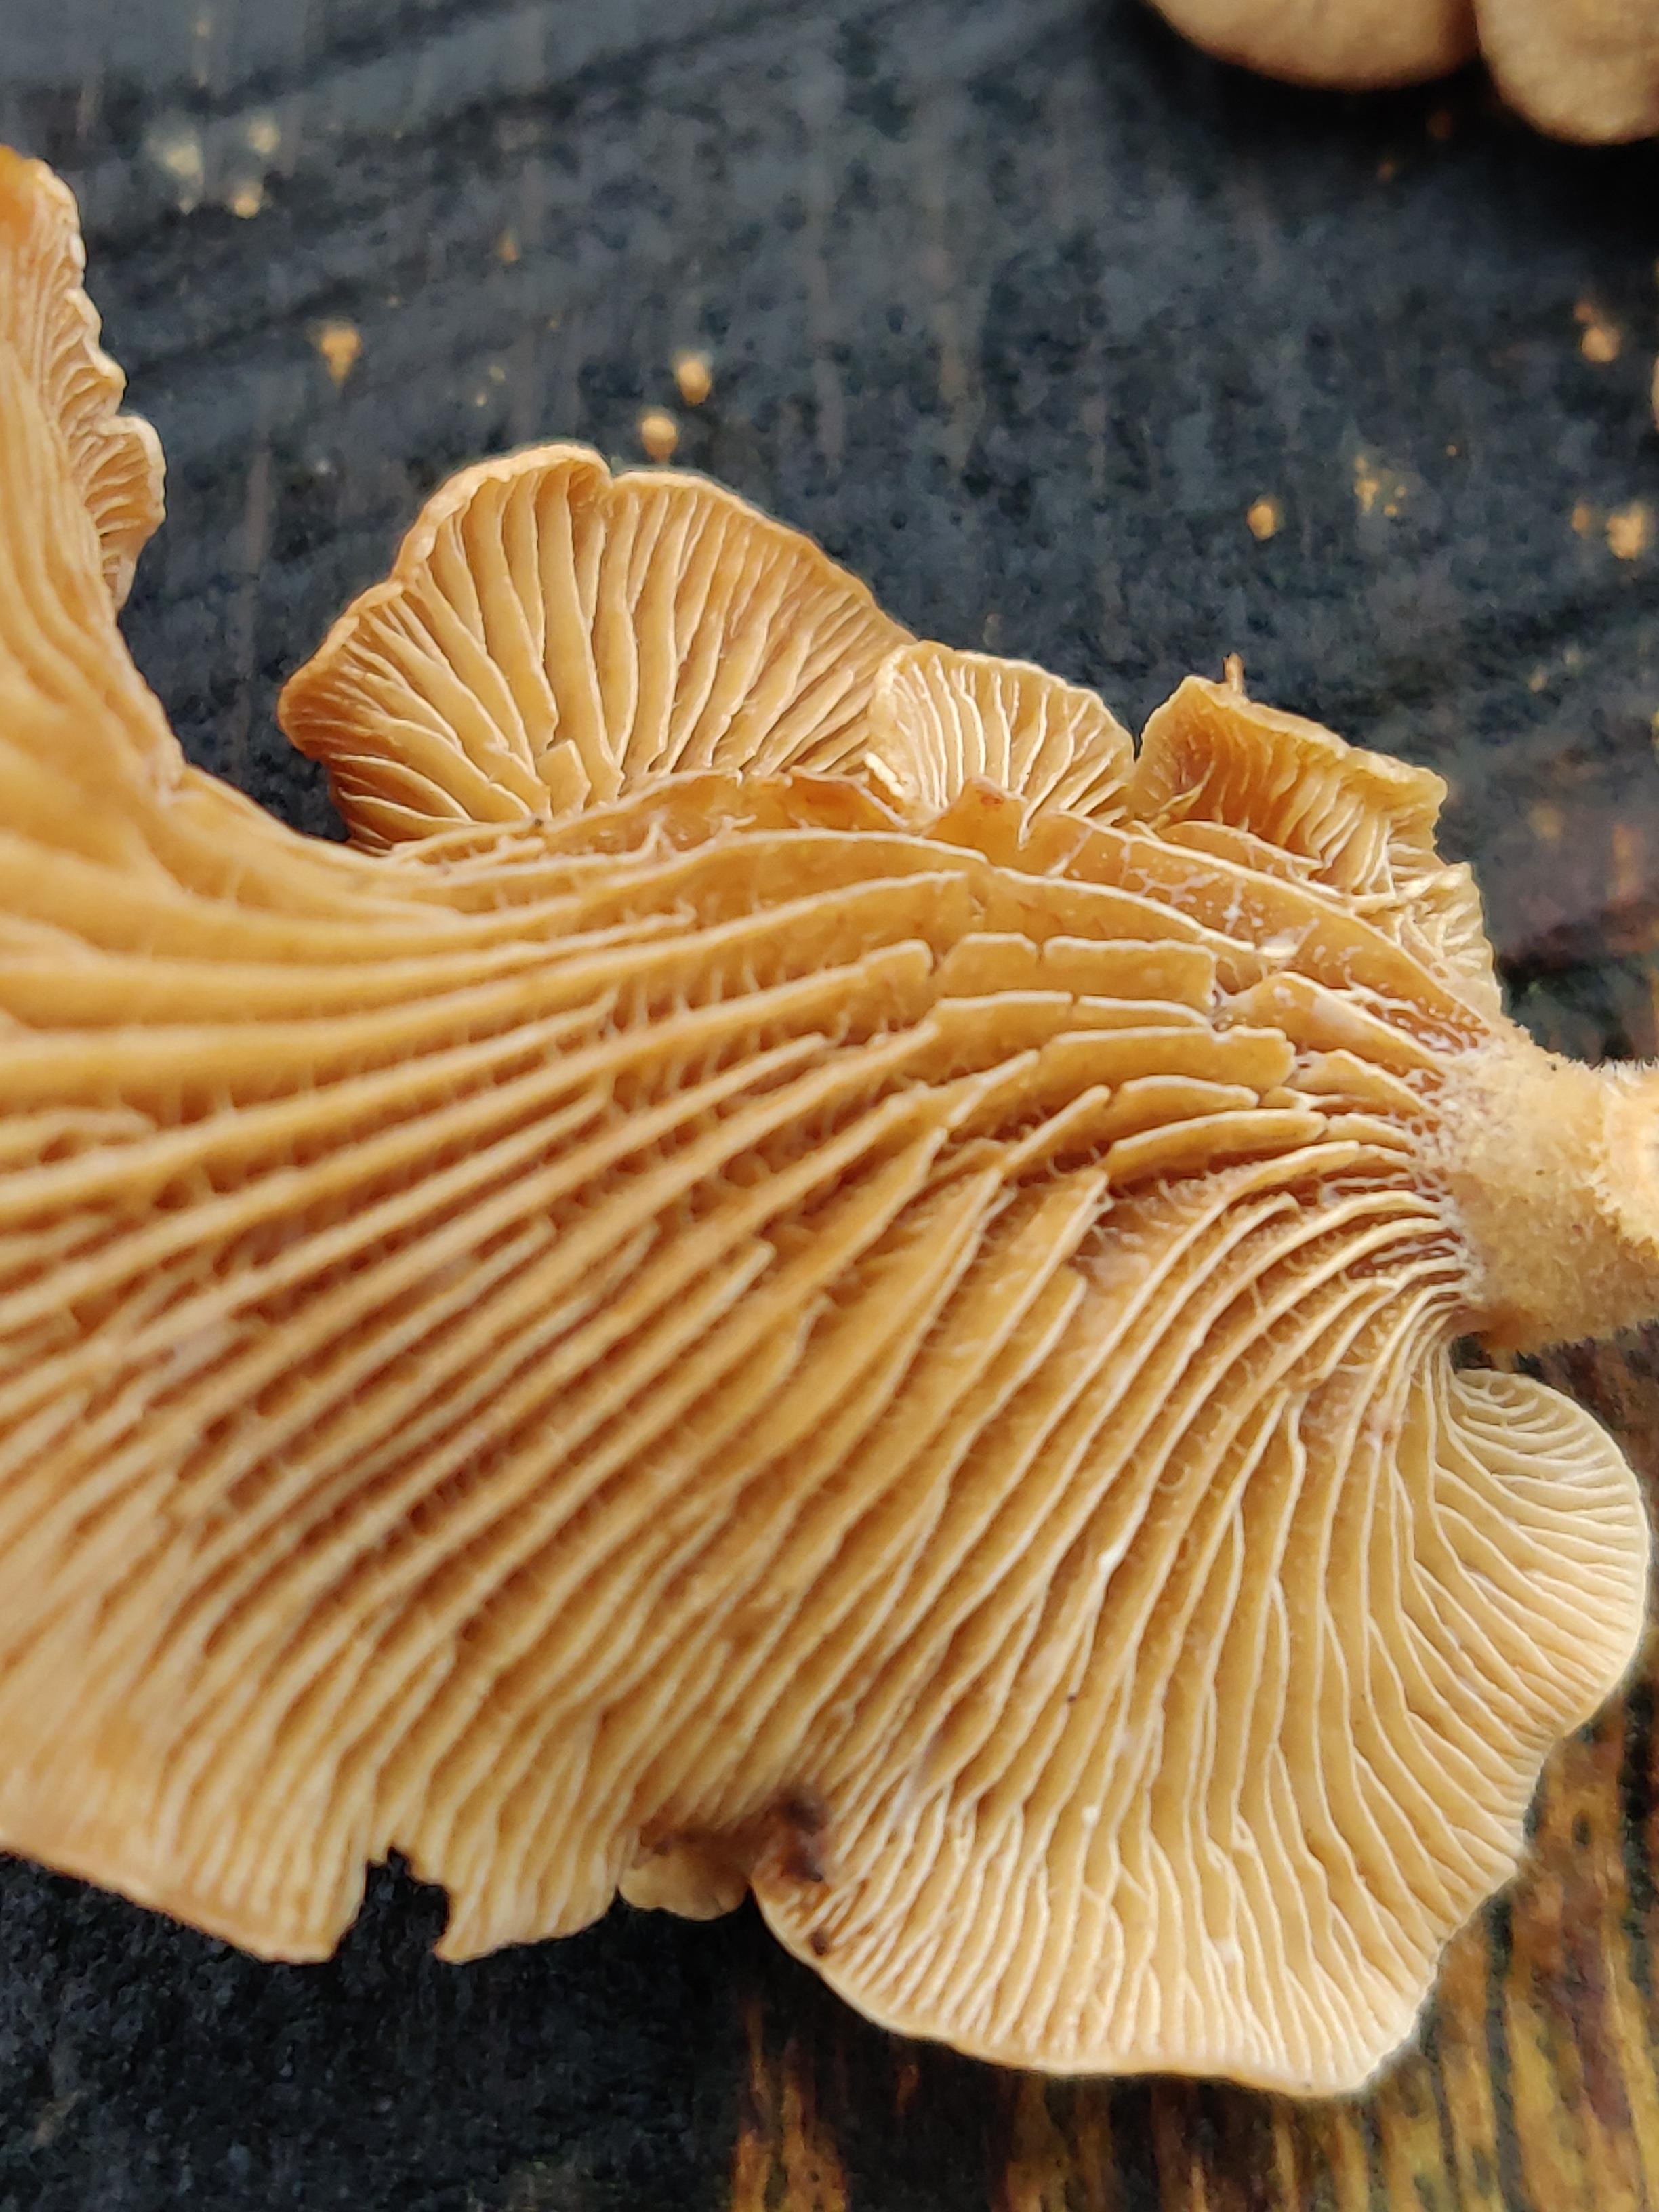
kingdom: Fungi
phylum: Basidiomycota
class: Agaricomycetes
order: Agaricales
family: Mycenaceae
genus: Panellus
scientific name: Panellus stipticus
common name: kliddet epaulethat
